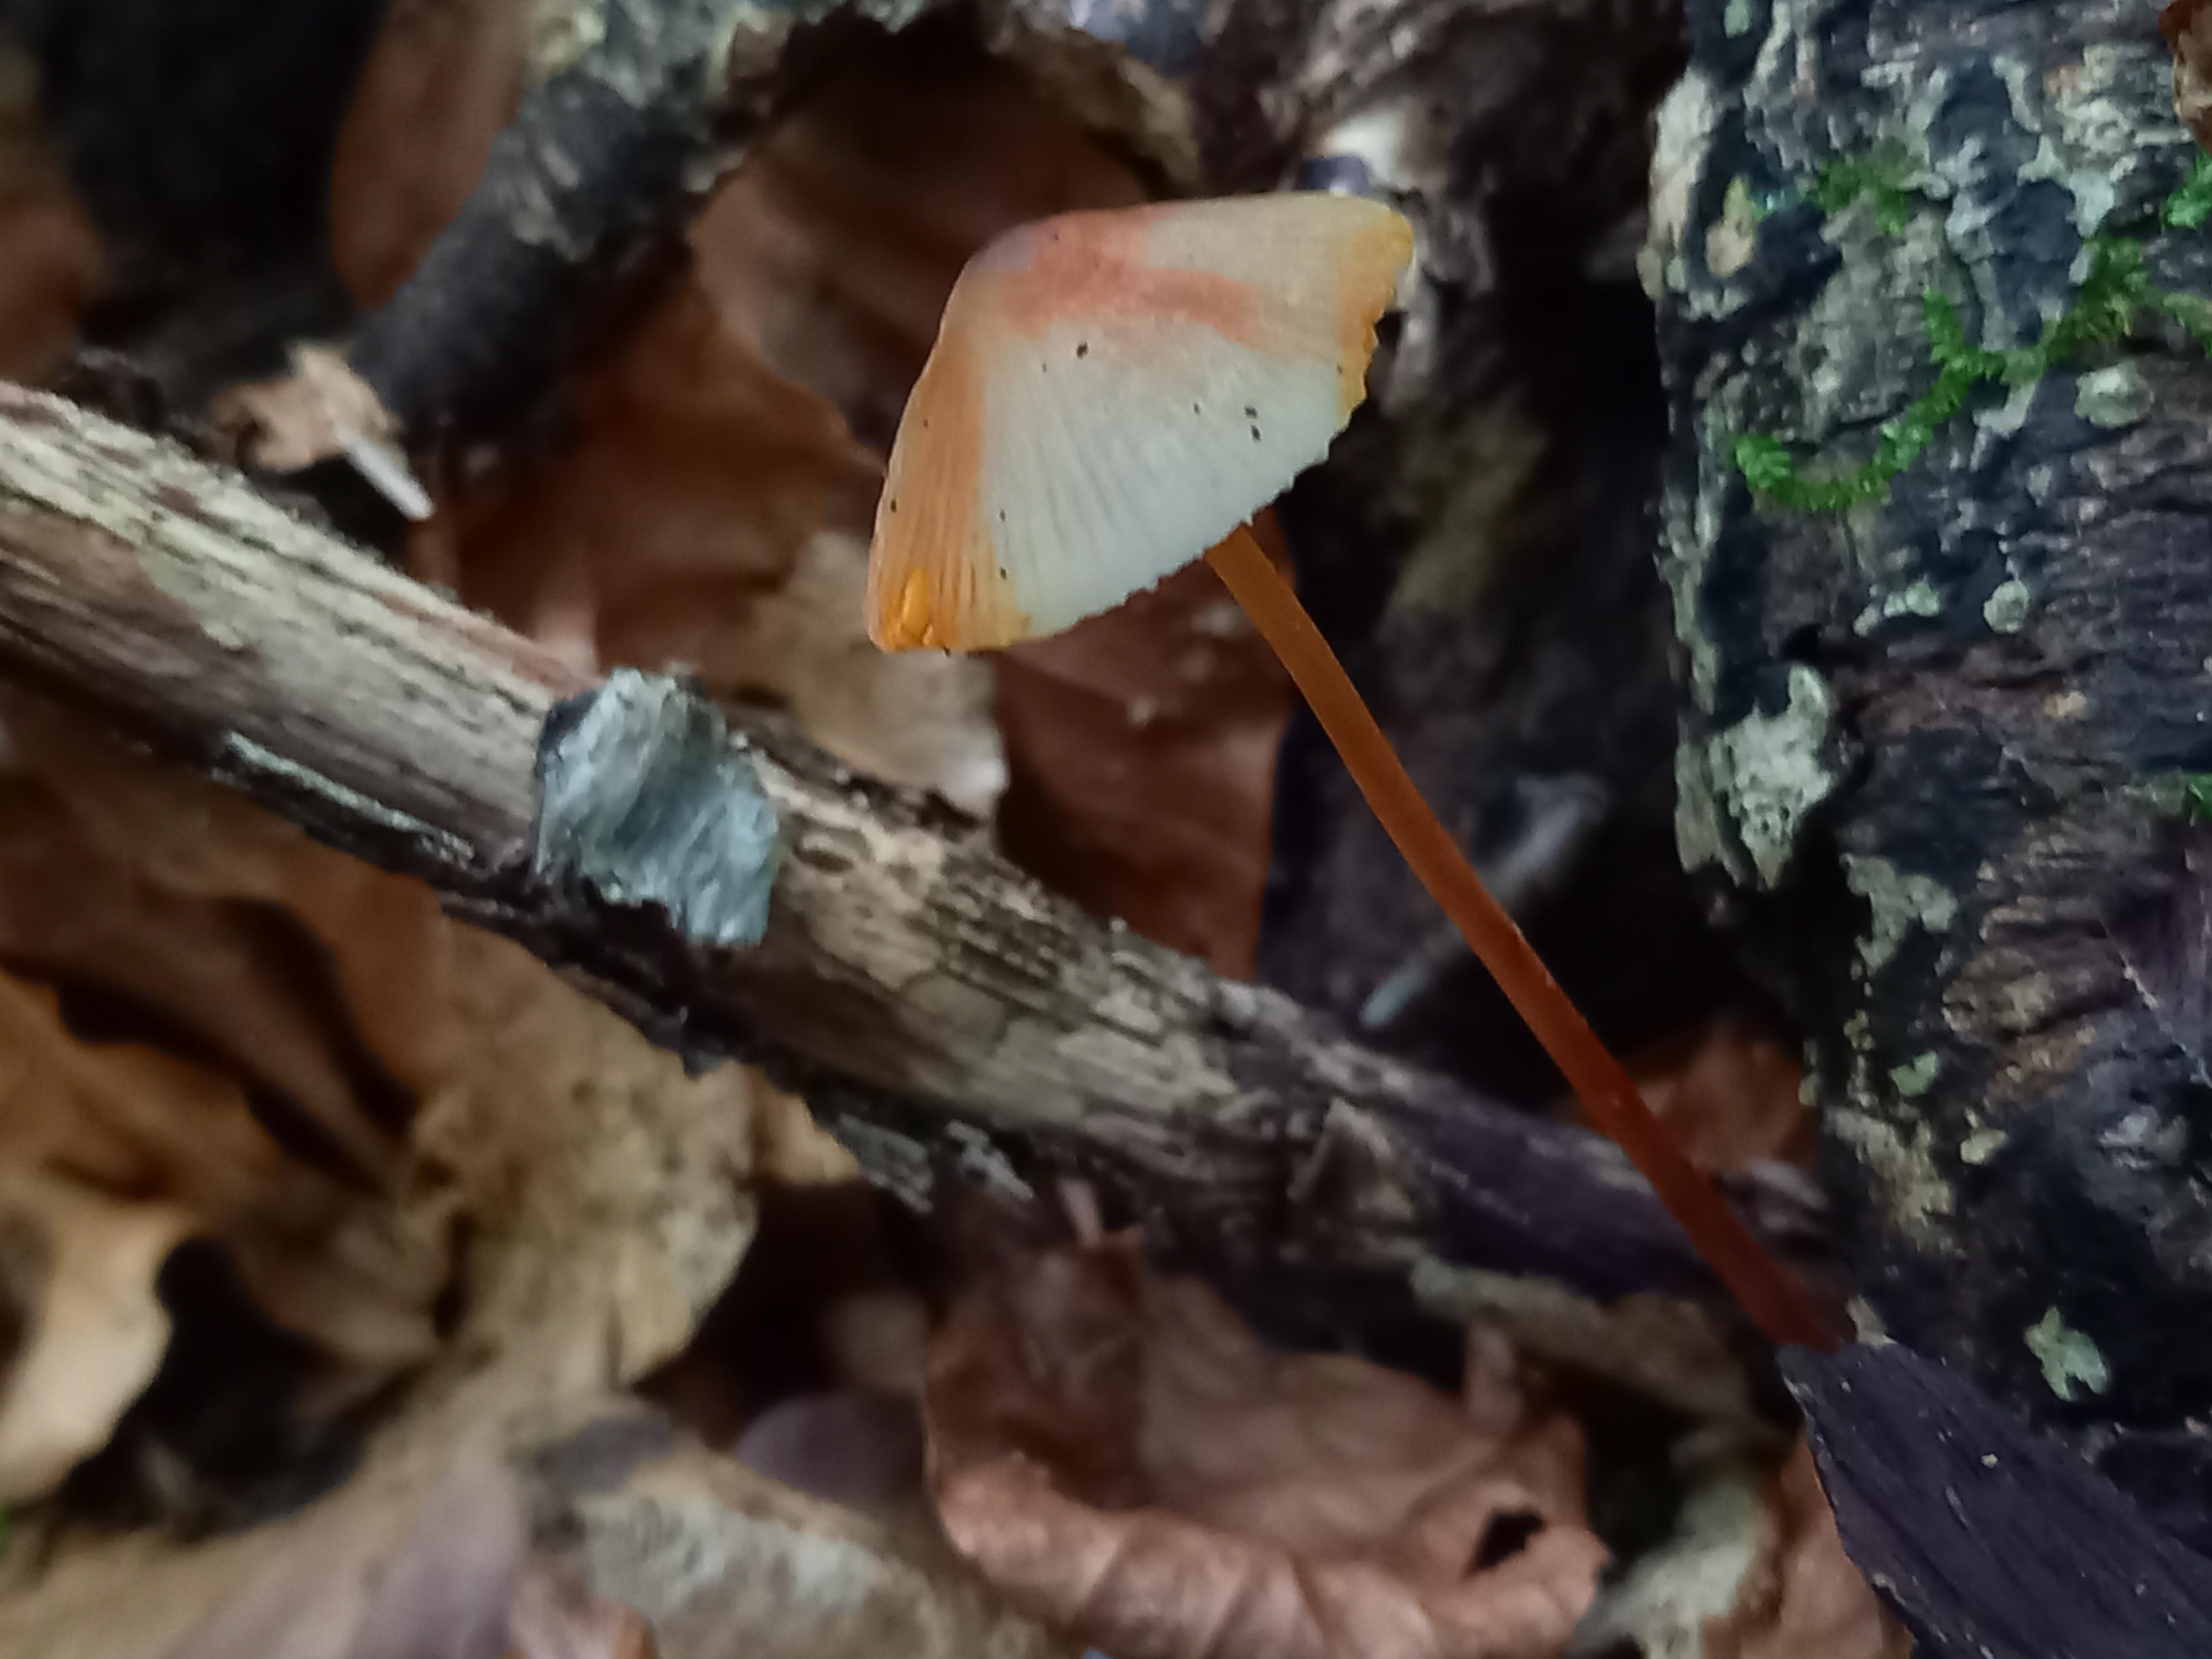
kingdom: Fungi
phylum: Basidiomycota
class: Agaricomycetes
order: Agaricales
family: Mycenaceae
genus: Mycena
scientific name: Mycena crocata
